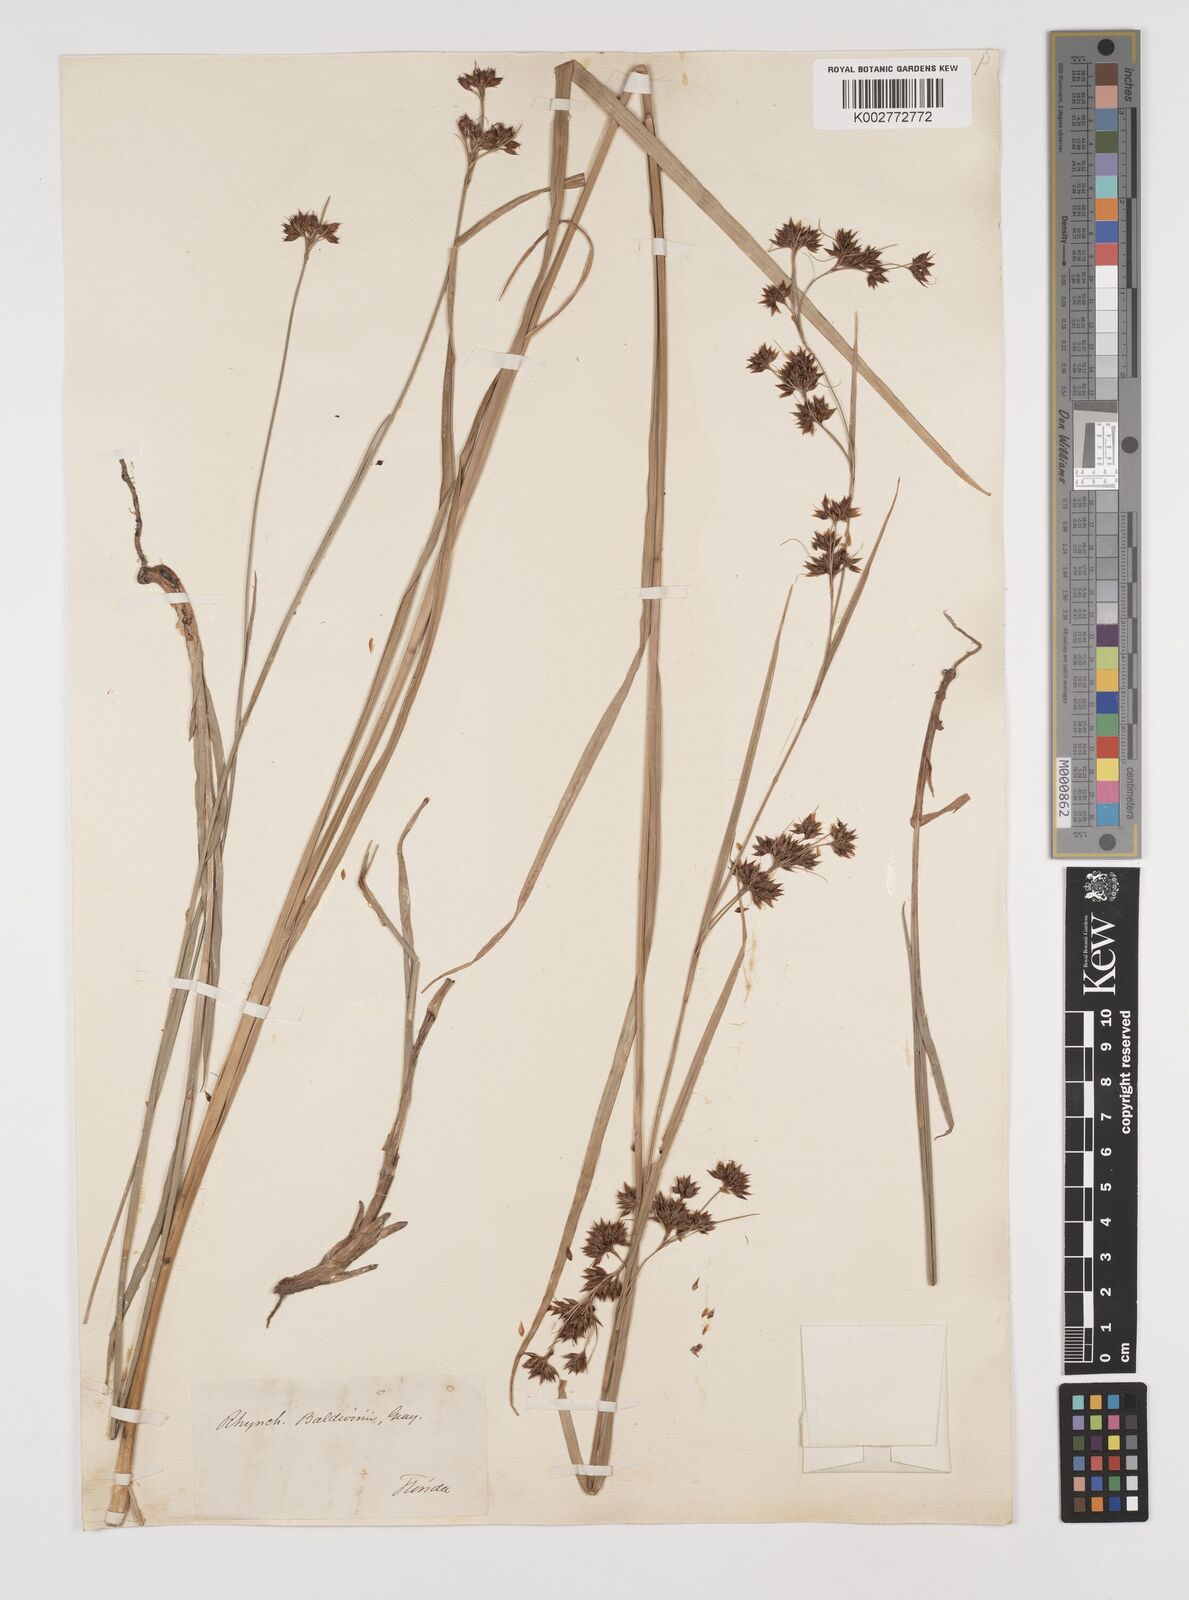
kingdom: Plantae
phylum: Tracheophyta
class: Liliopsida
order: Poales
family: Cyperaceae
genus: Rhynchospora
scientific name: Rhynchospora baldwinii
